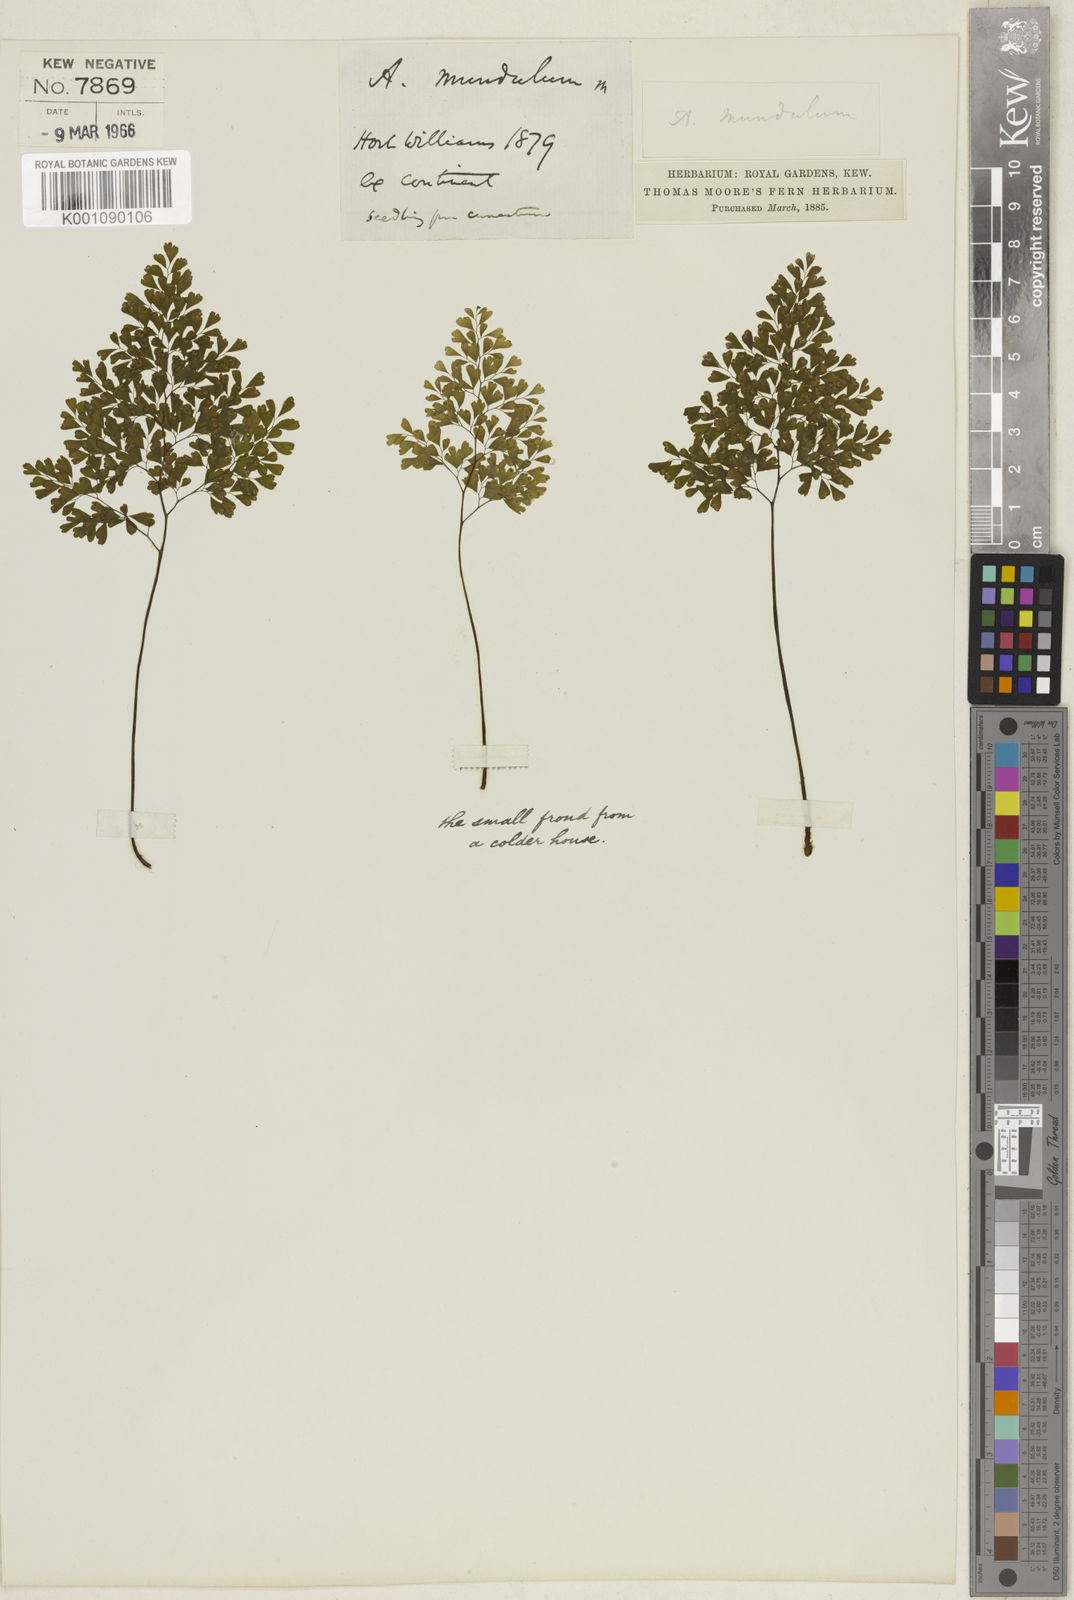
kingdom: Plantae
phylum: Tracheophyta
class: Polypodiopsida
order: Polypodiales
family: Pteridaceae
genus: Adiantum
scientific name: Adiantum raddianum
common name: Delta maidenhair fern
